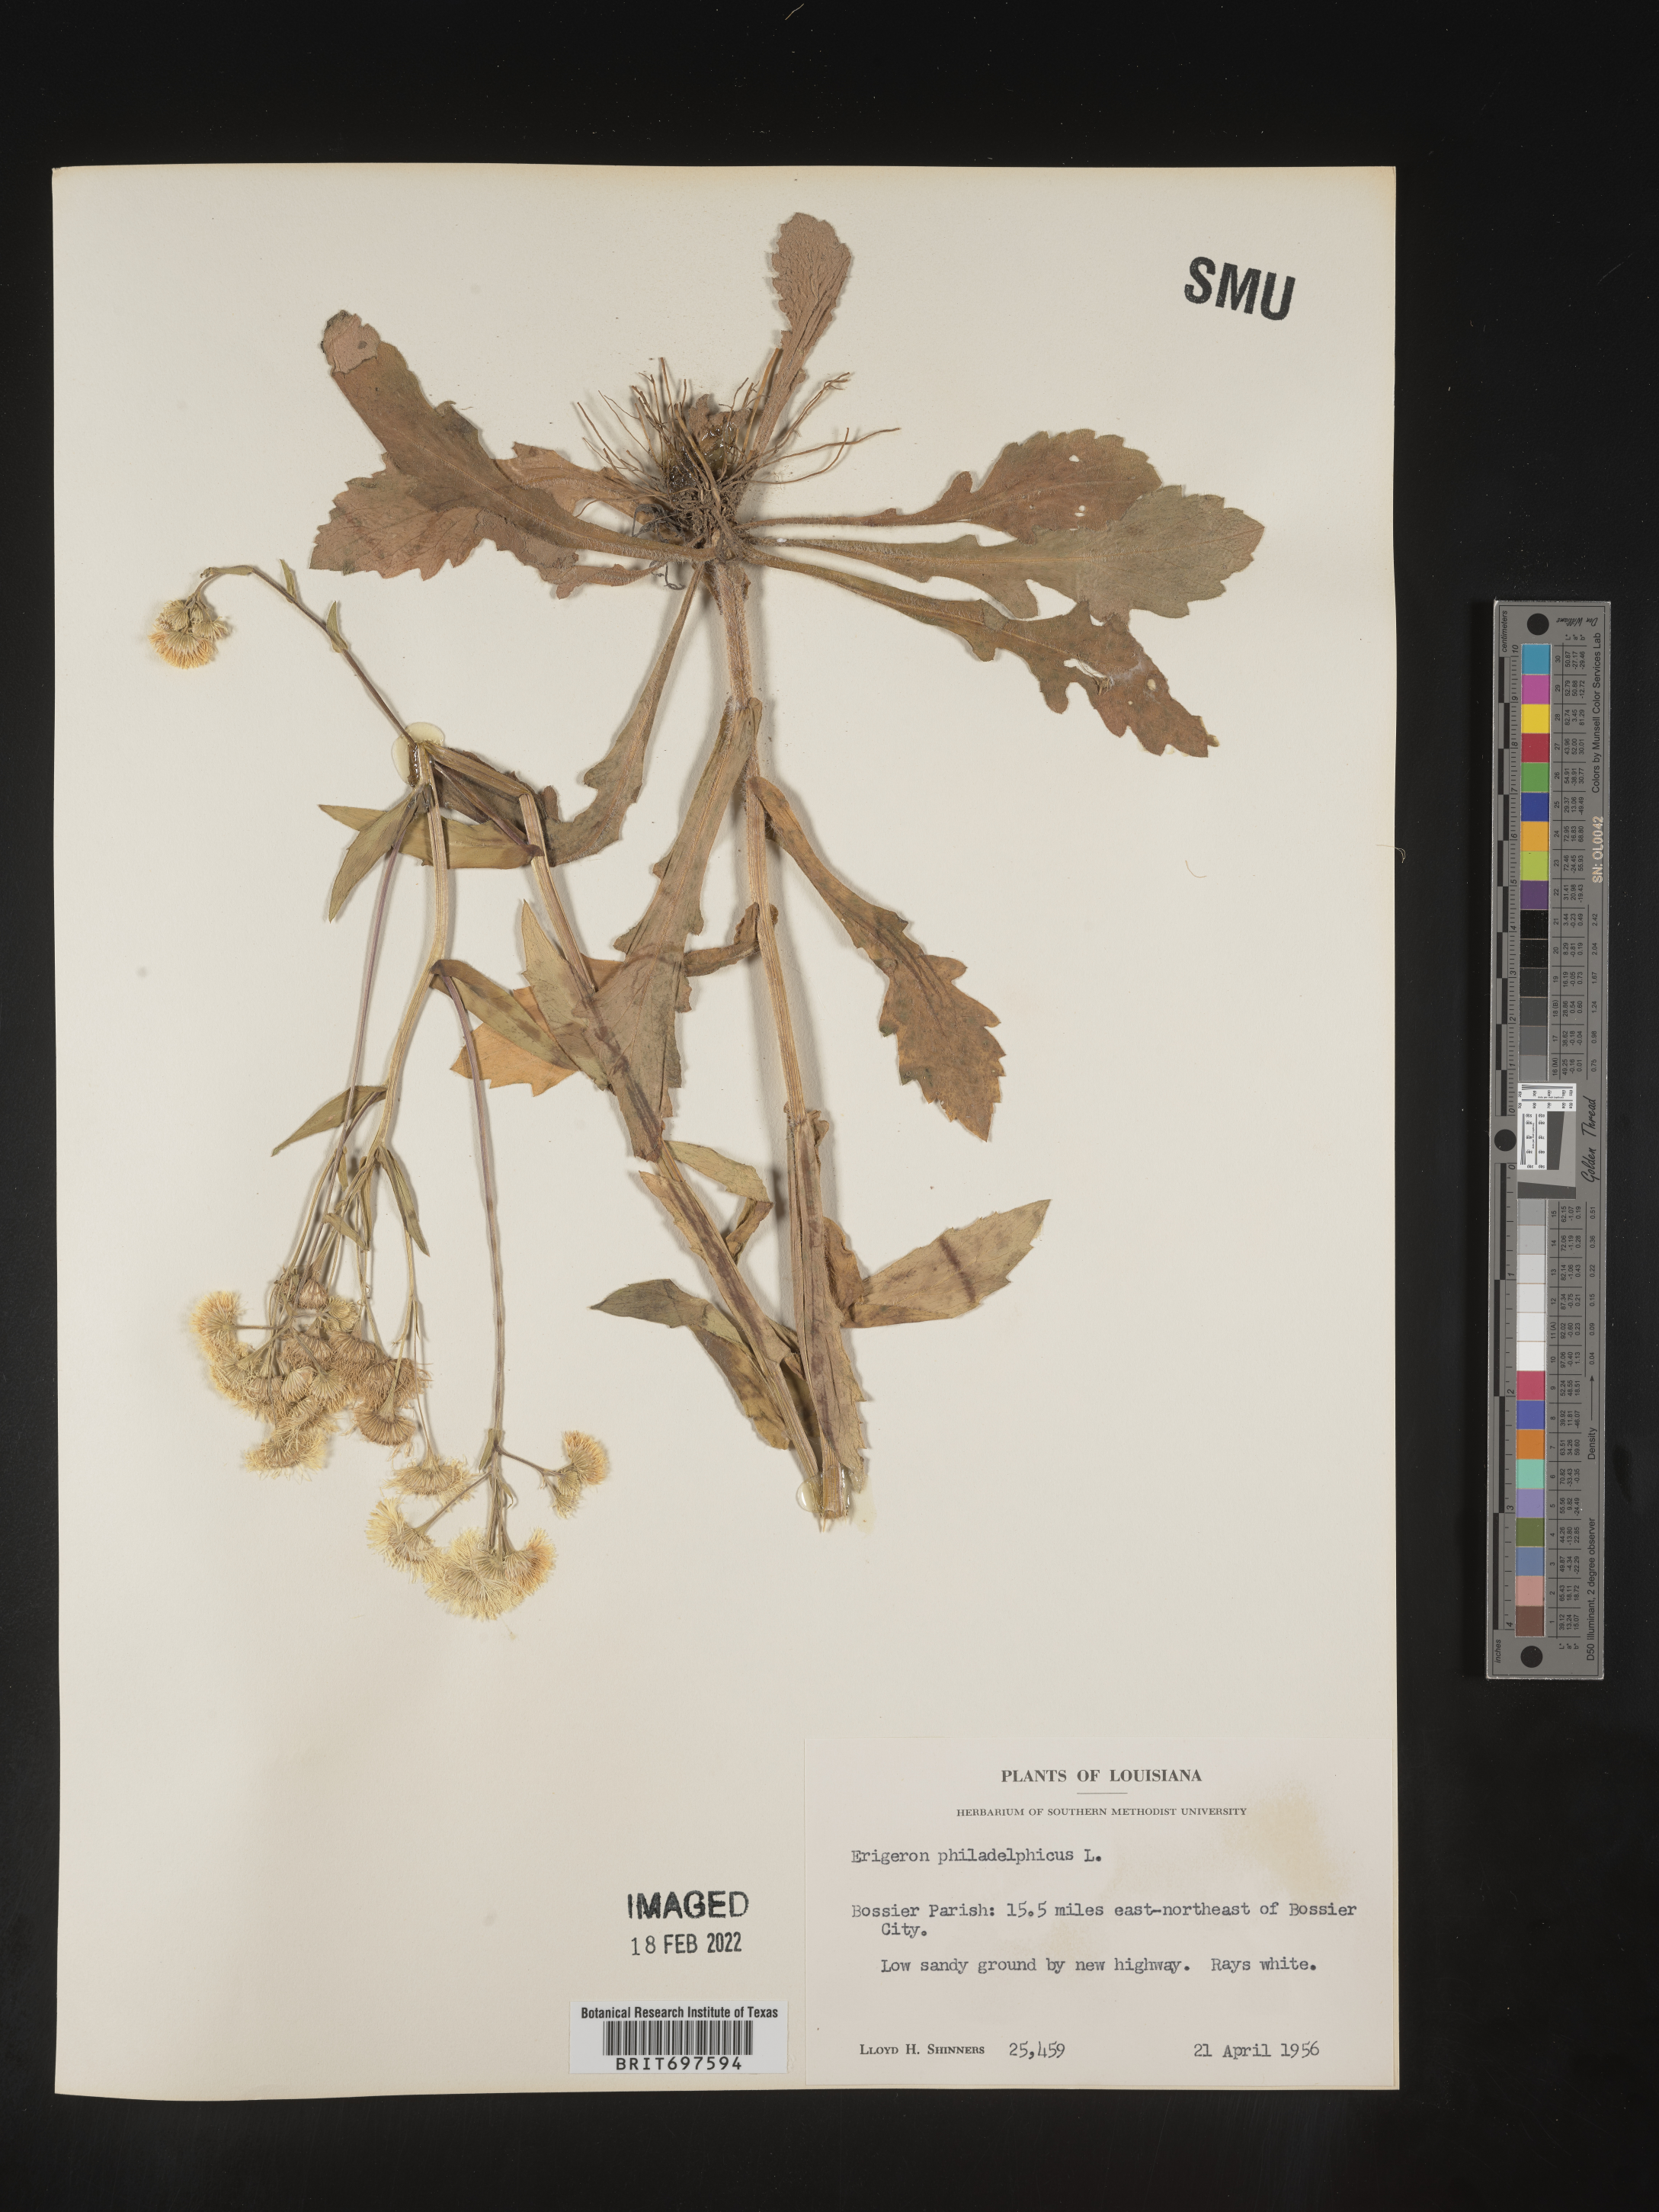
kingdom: Plantae
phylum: Tracheophyta
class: Magnoliopsida
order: Asterales
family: Asteraceae
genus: Erigeron
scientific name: Erigeron philadelphicus
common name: Robin's-plantain
